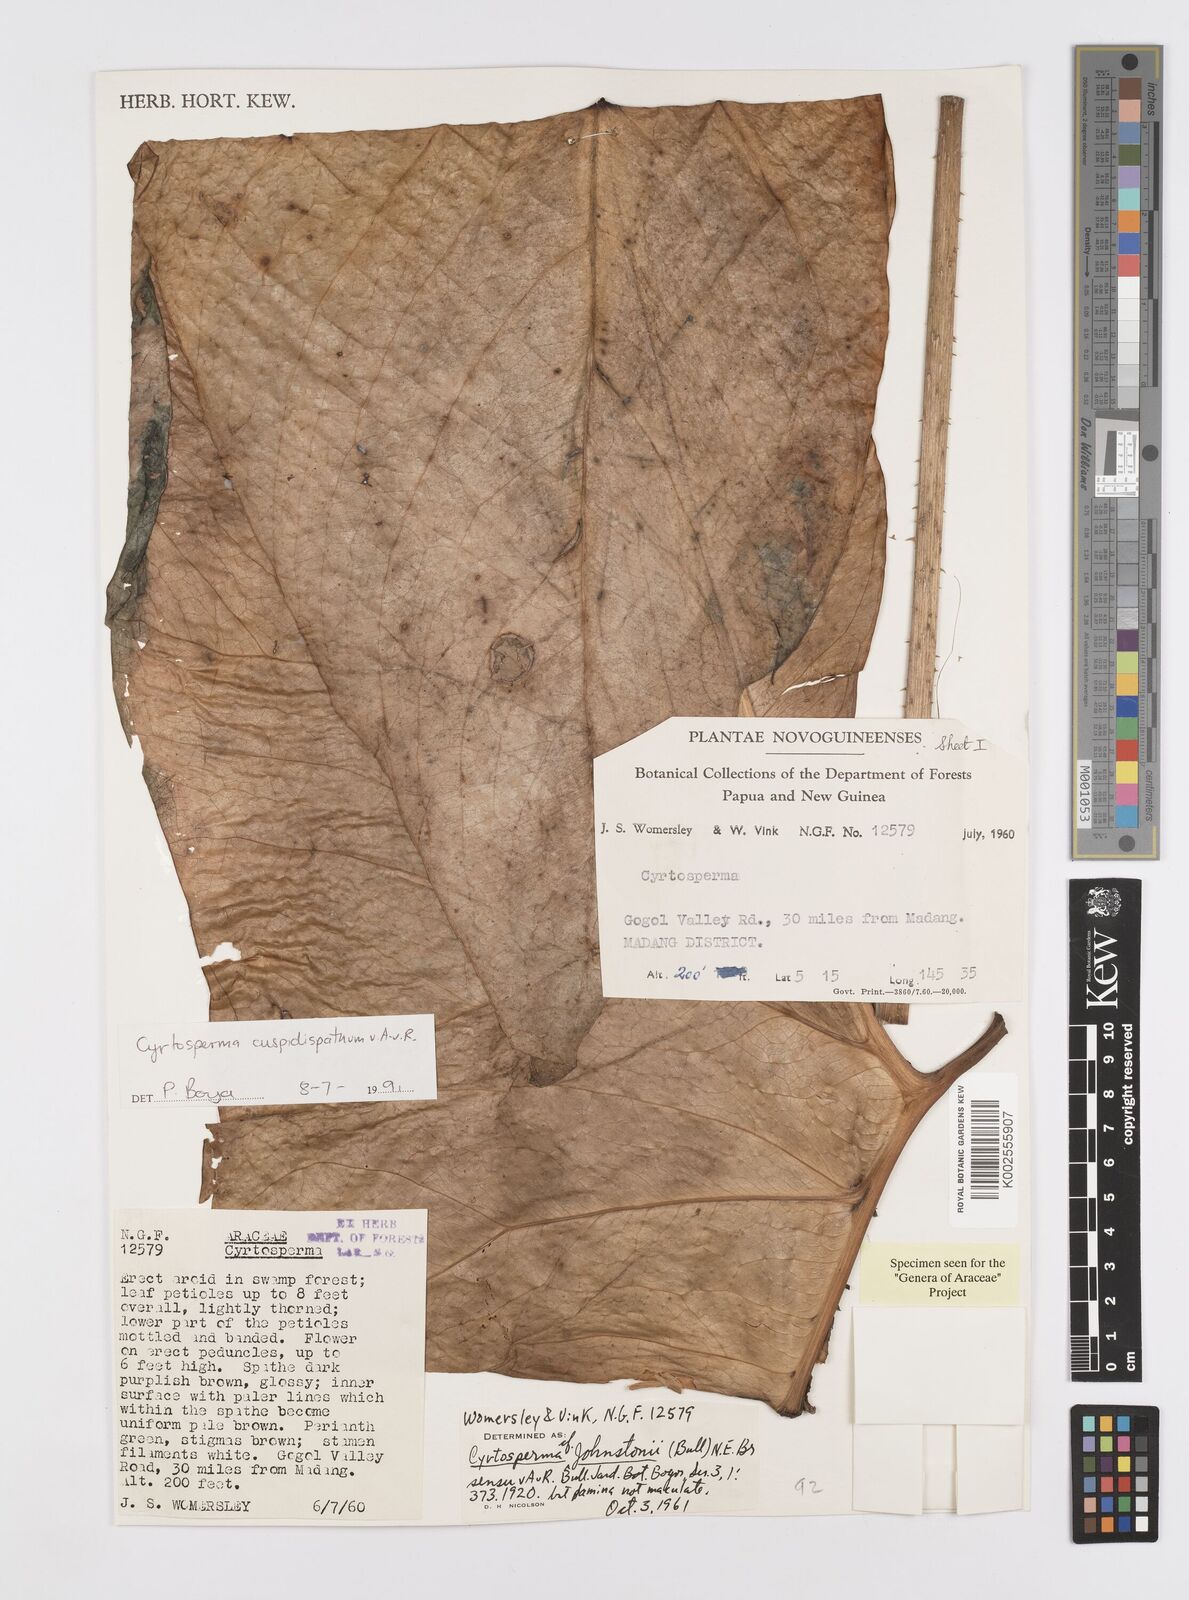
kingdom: Plantae
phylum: Tracheophyta
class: Liliopsida
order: Alismatales
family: Araceae
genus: Cyrtosperma
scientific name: Cyrtosperma cuspidispathum
